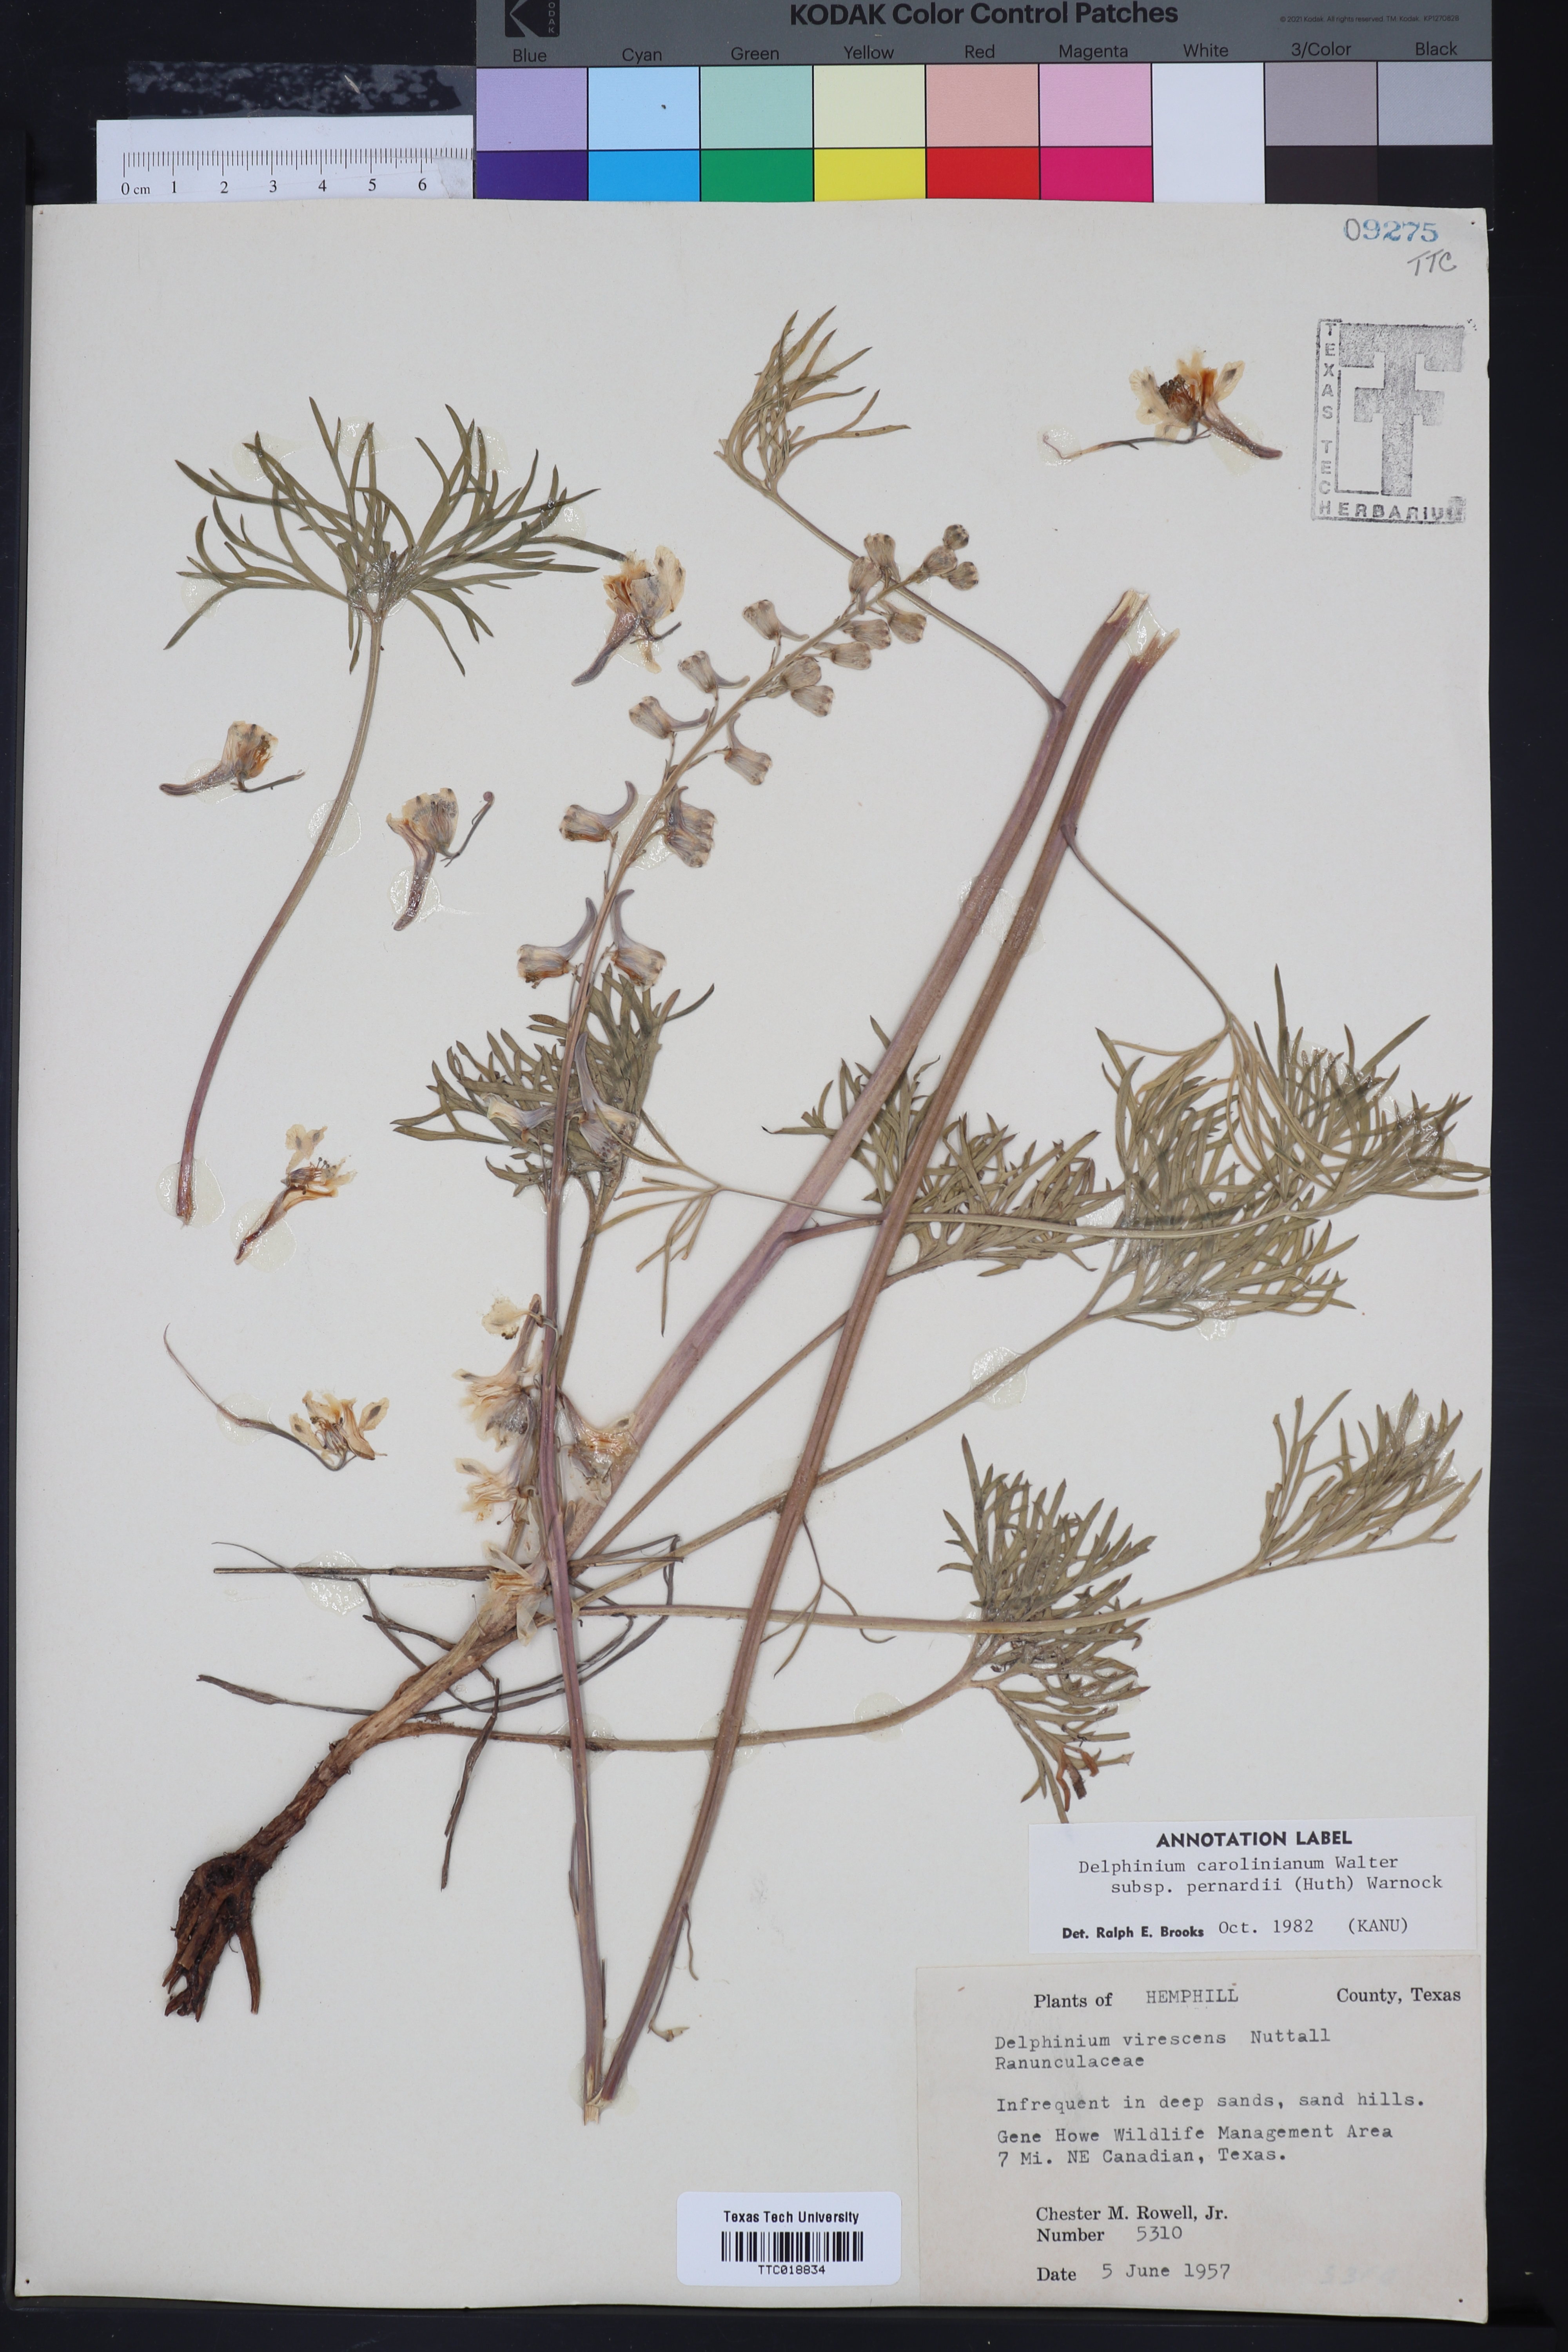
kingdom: Plantae
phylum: Tracheophyta
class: Magnoliopsida
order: Ranunculales
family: Ranunculaceae
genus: Delphinium
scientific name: Delphinium carolinianum
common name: Carolina larkspur
